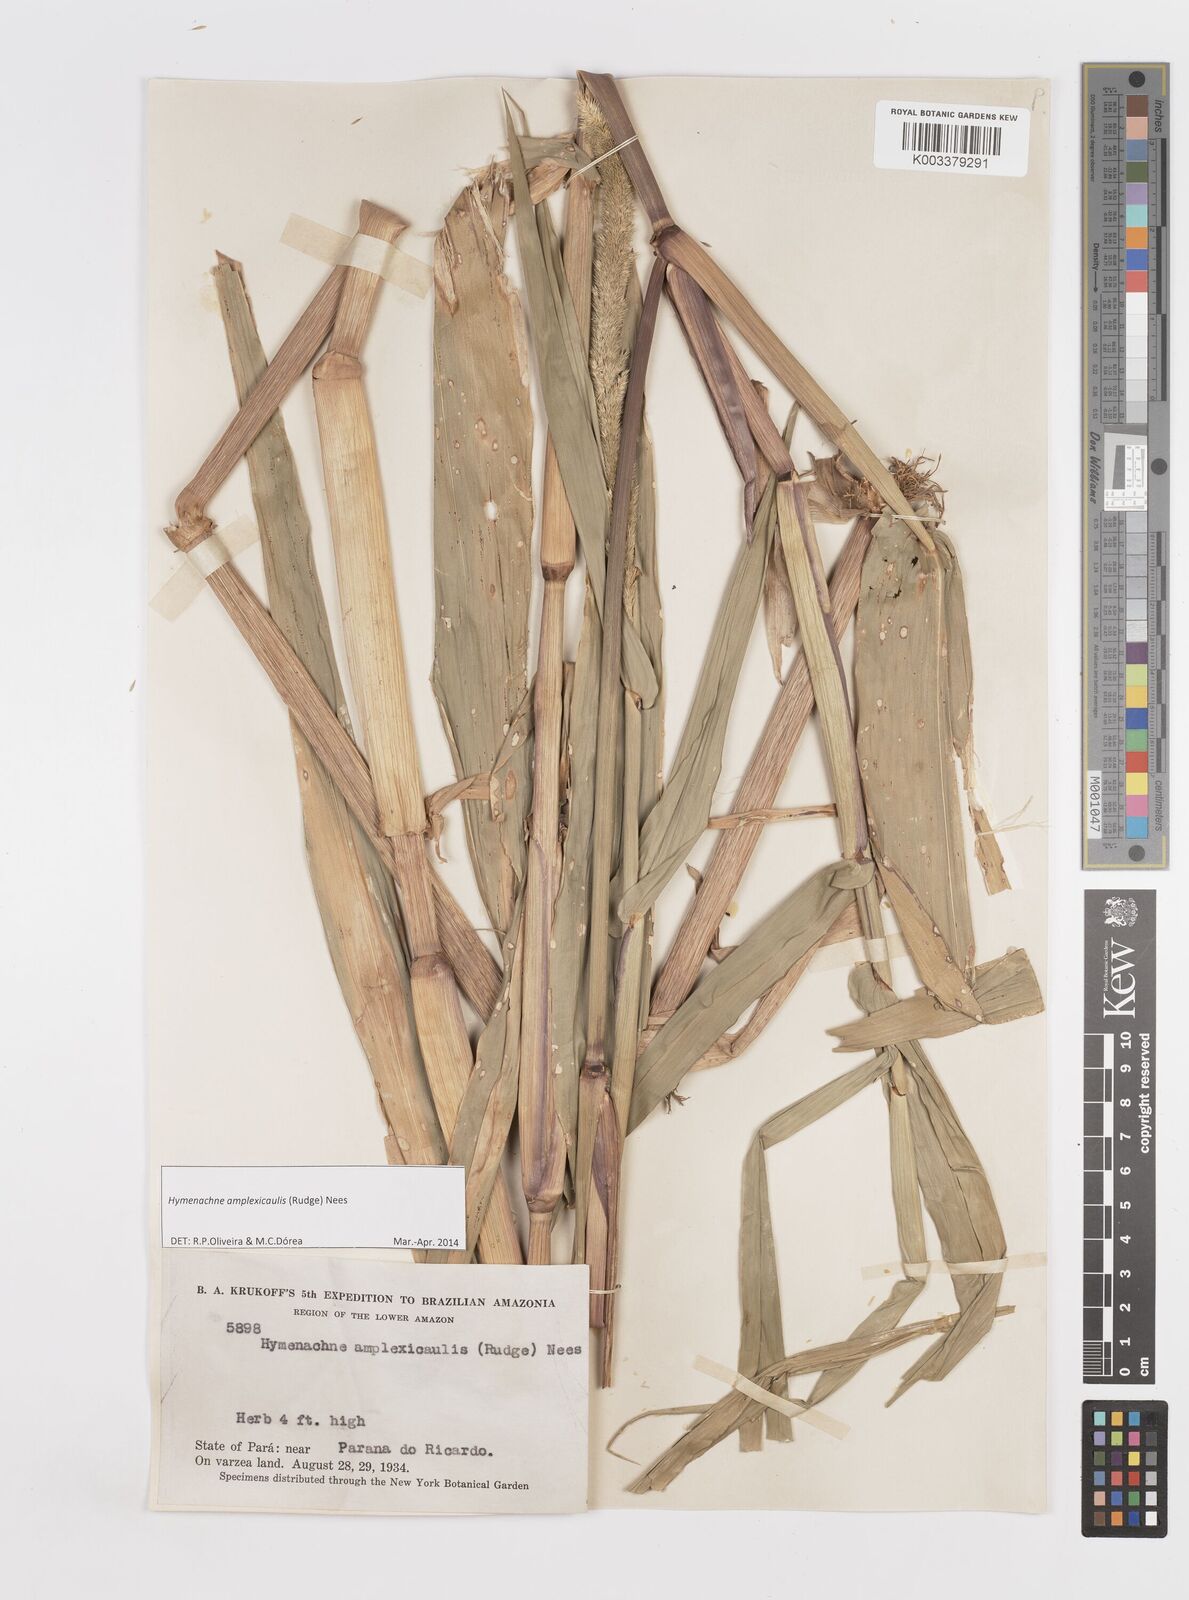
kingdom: Plantae
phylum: Tracheophyta
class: Liliopsida
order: Poales
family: Poaceae
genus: Hymenachne
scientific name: Hymenachne amplexicaulis
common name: Olive hymenachne
